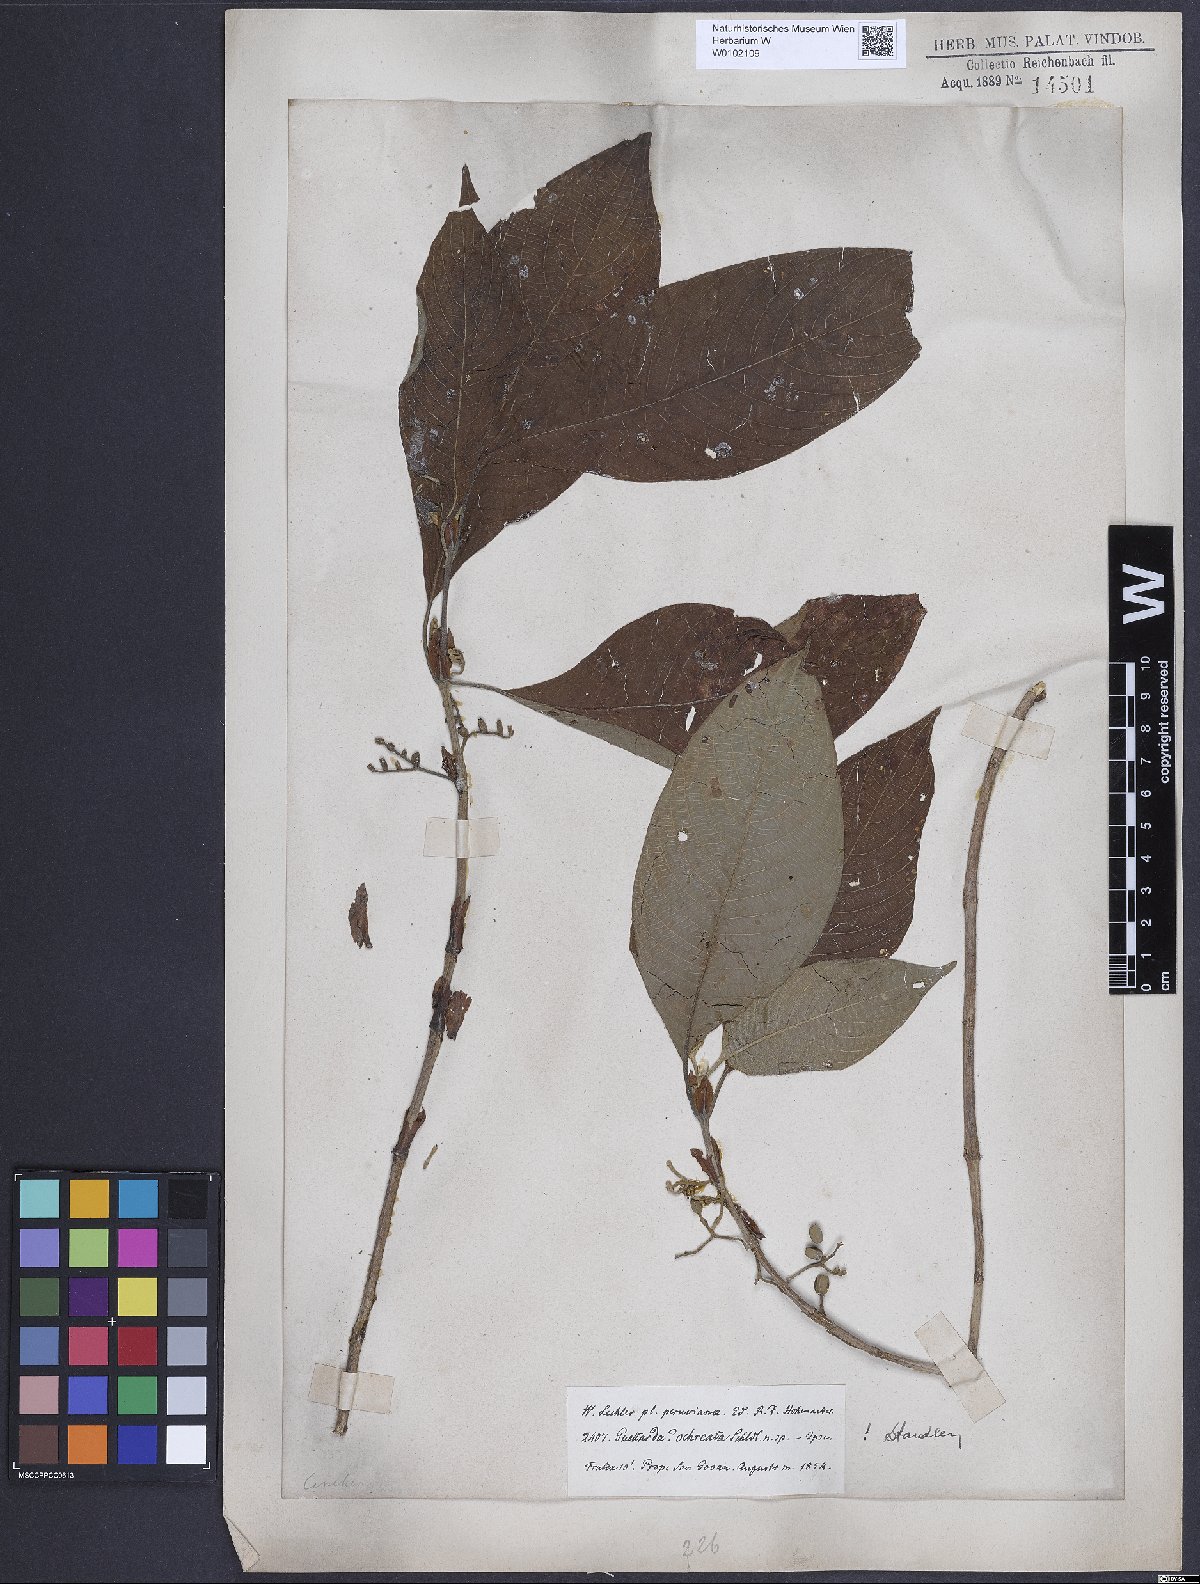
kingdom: Plantae
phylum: Tracheophyta
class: Magnoliopsida
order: Gentianales
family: Rubiaceae
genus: Tournefortiopsis
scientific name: Tournefortiopsis crispiflora
